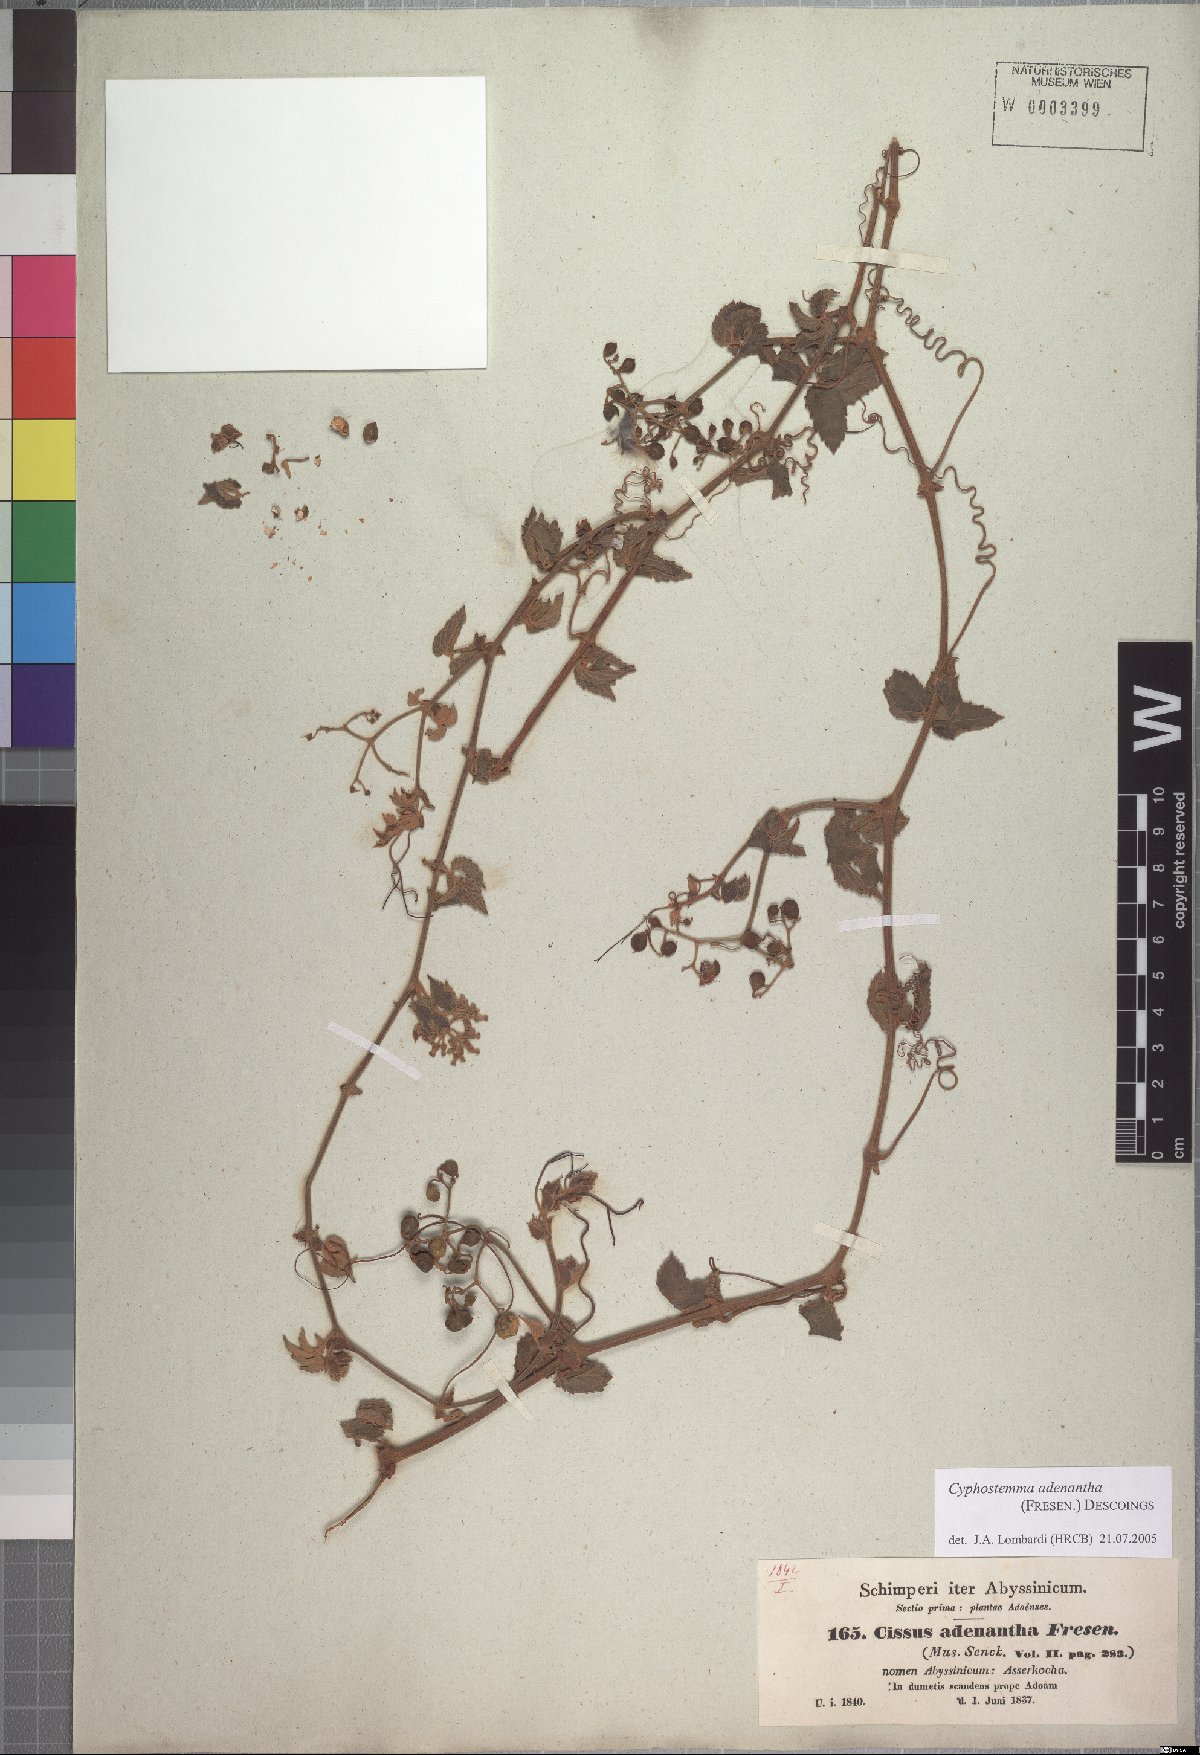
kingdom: Plantae
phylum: Tracheophyta
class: Magnoliopsida
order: Vitales
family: Vitaceae
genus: Cyphostemma
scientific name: Cyphostemma adenanthum
